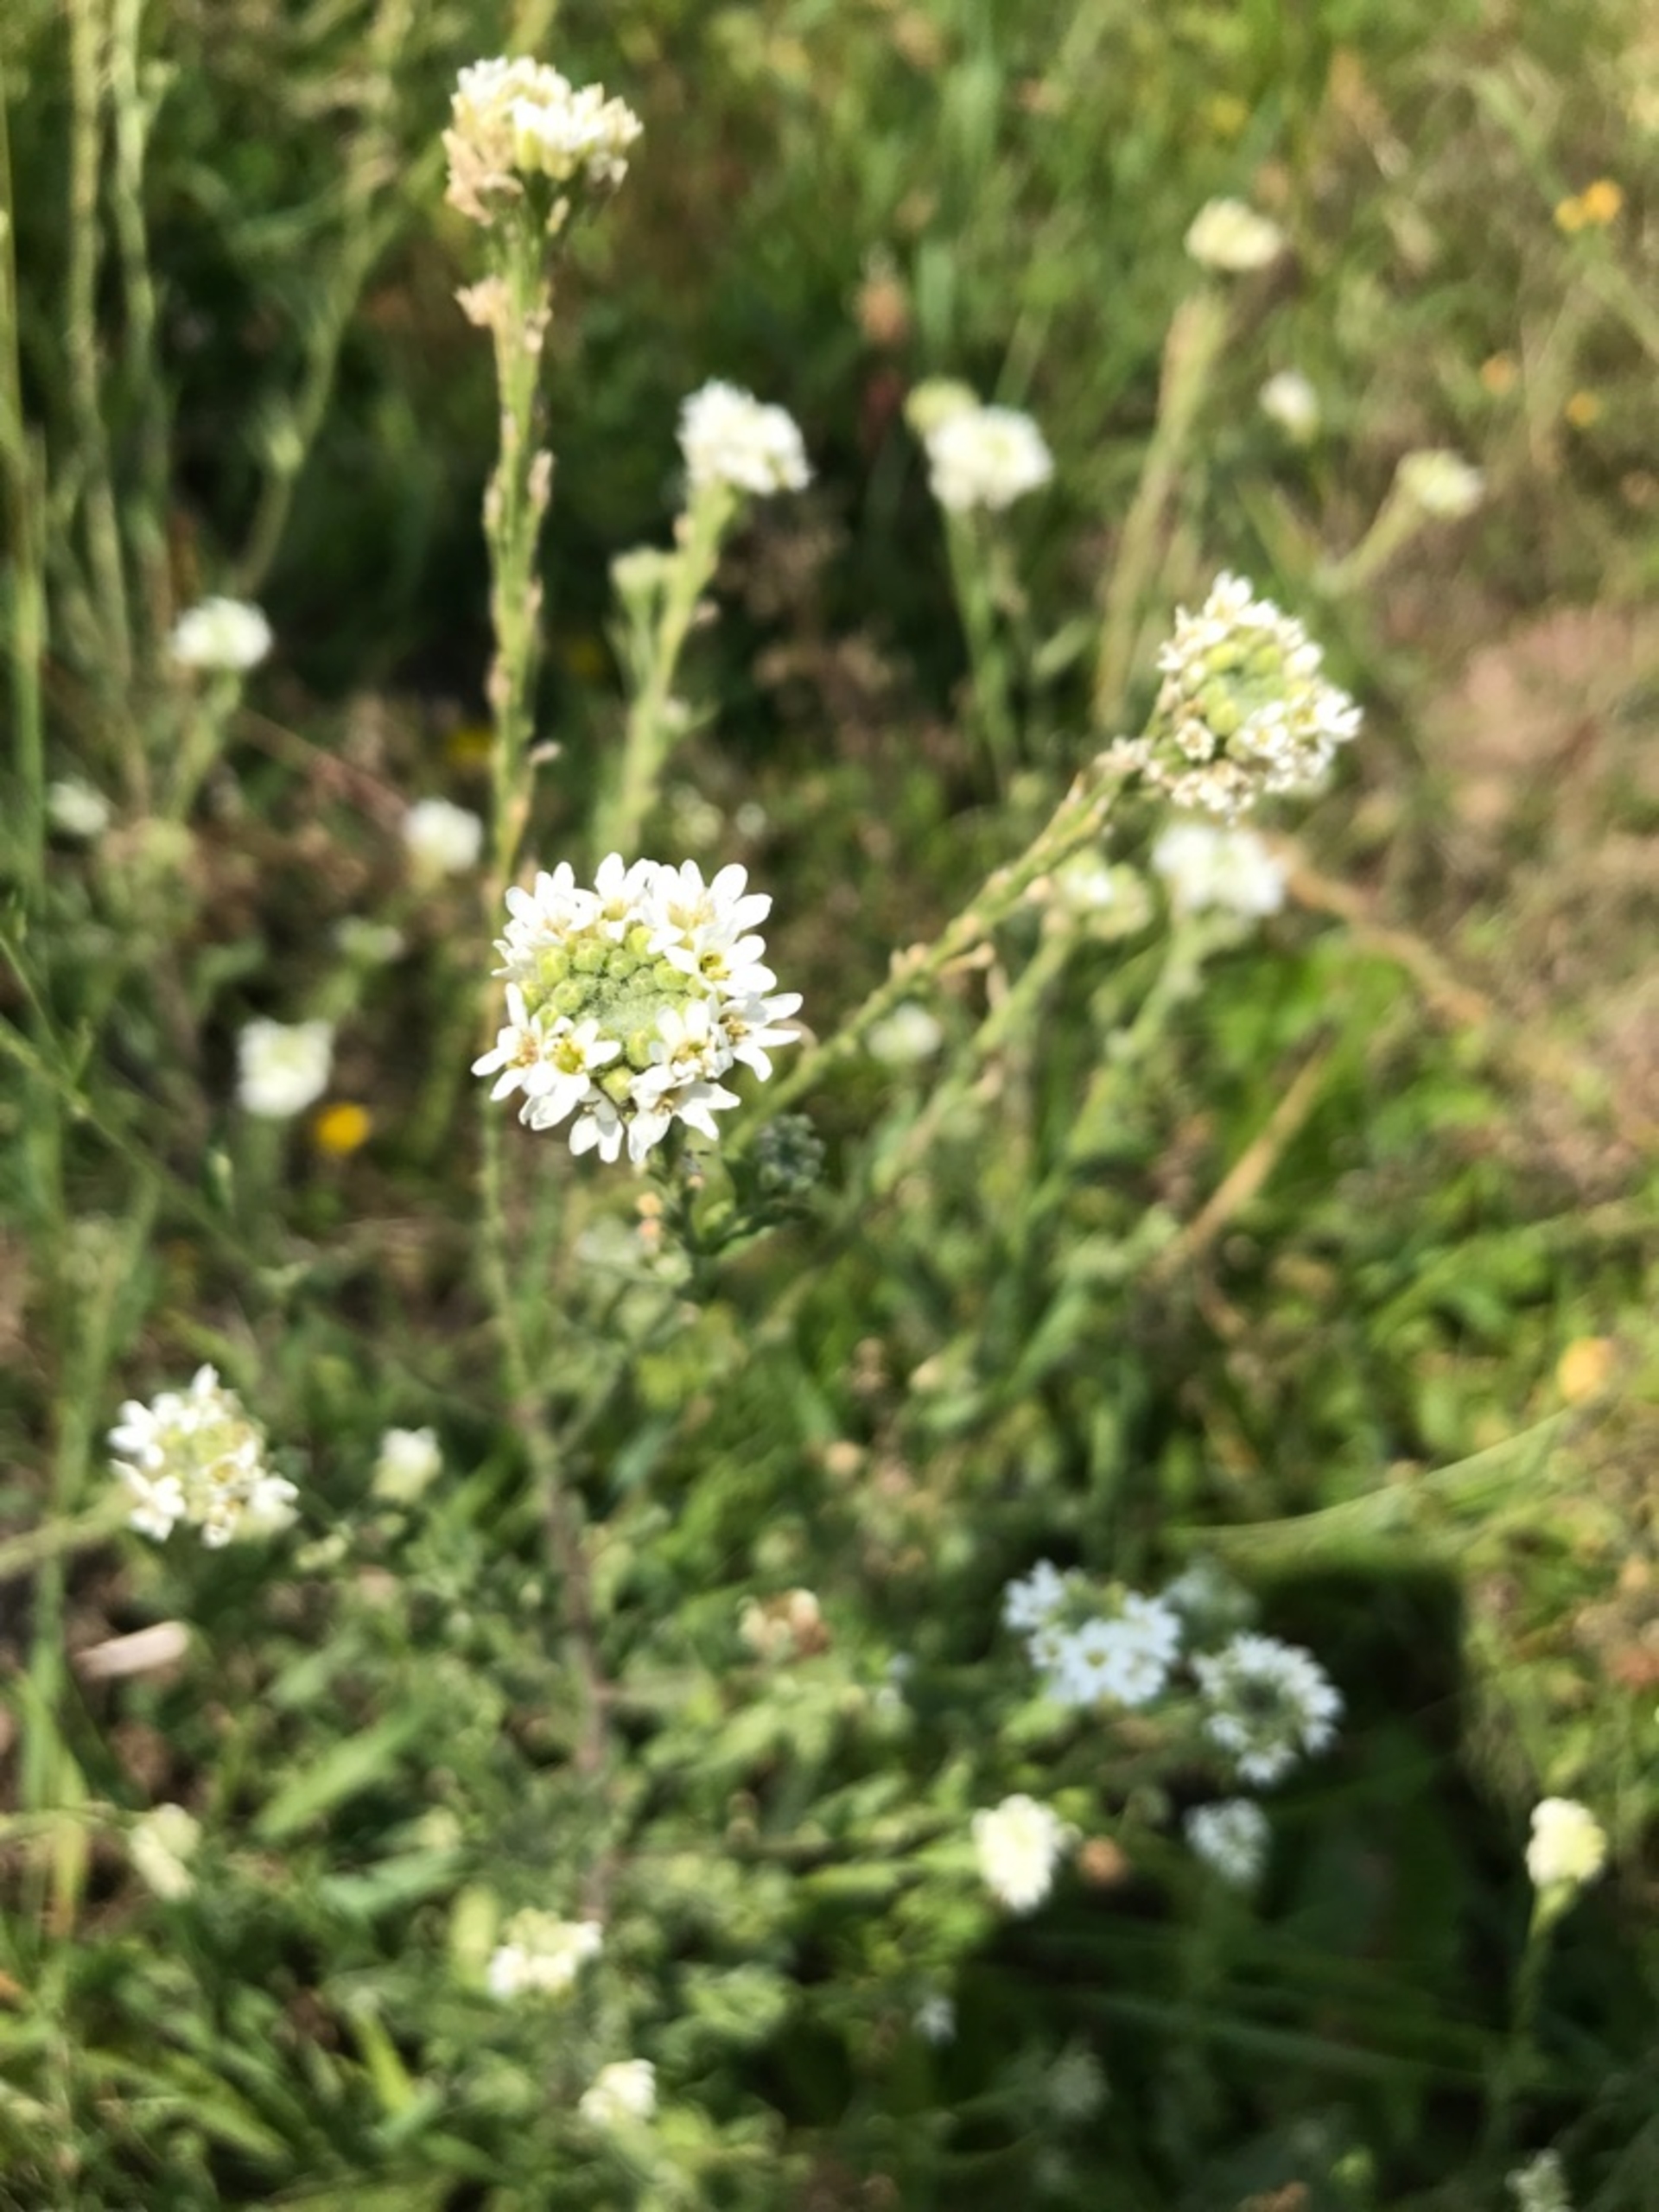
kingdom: Plantae
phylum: Tracheophyta
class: Magnoliopsida
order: Brassicales
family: Brassicaceae
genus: Berteroa
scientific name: Berteroa incana
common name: Kløvplade
